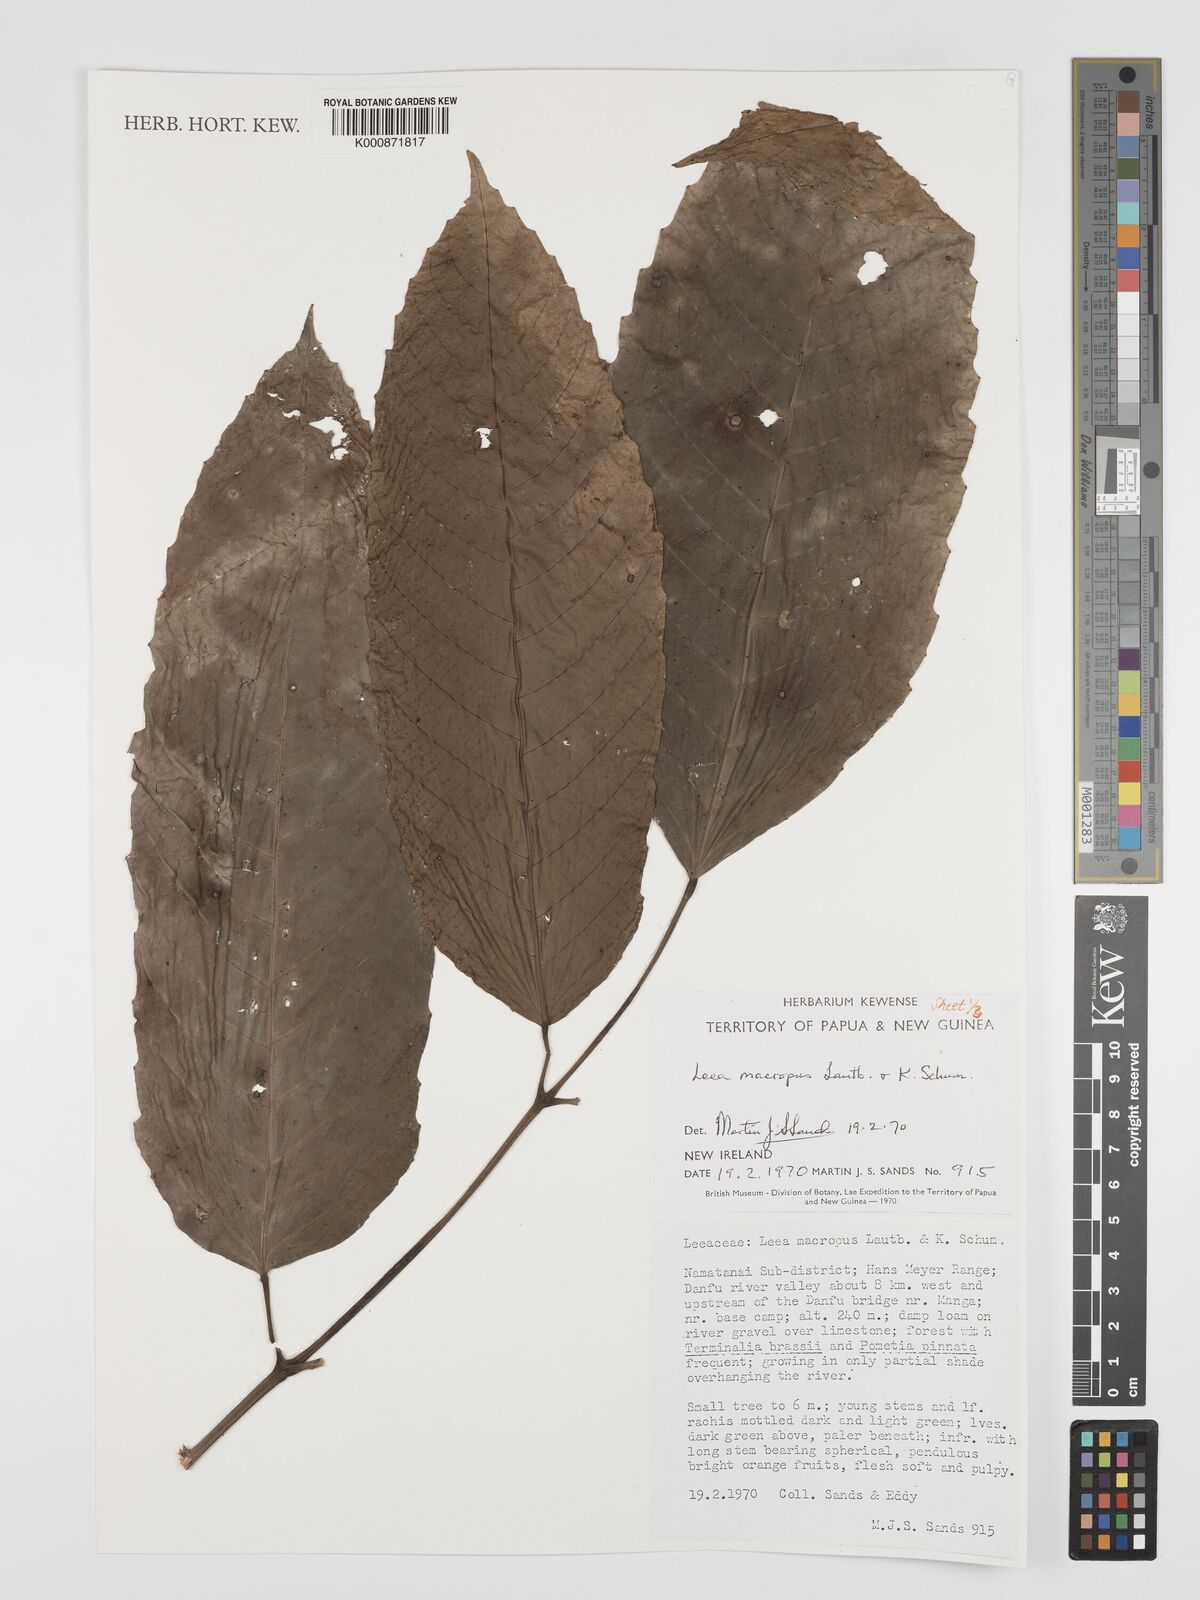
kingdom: Plantae
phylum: Tracheophyta
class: Magnoliopsida
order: Vitales
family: Vitaceae
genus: Leea
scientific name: Leea macropus
